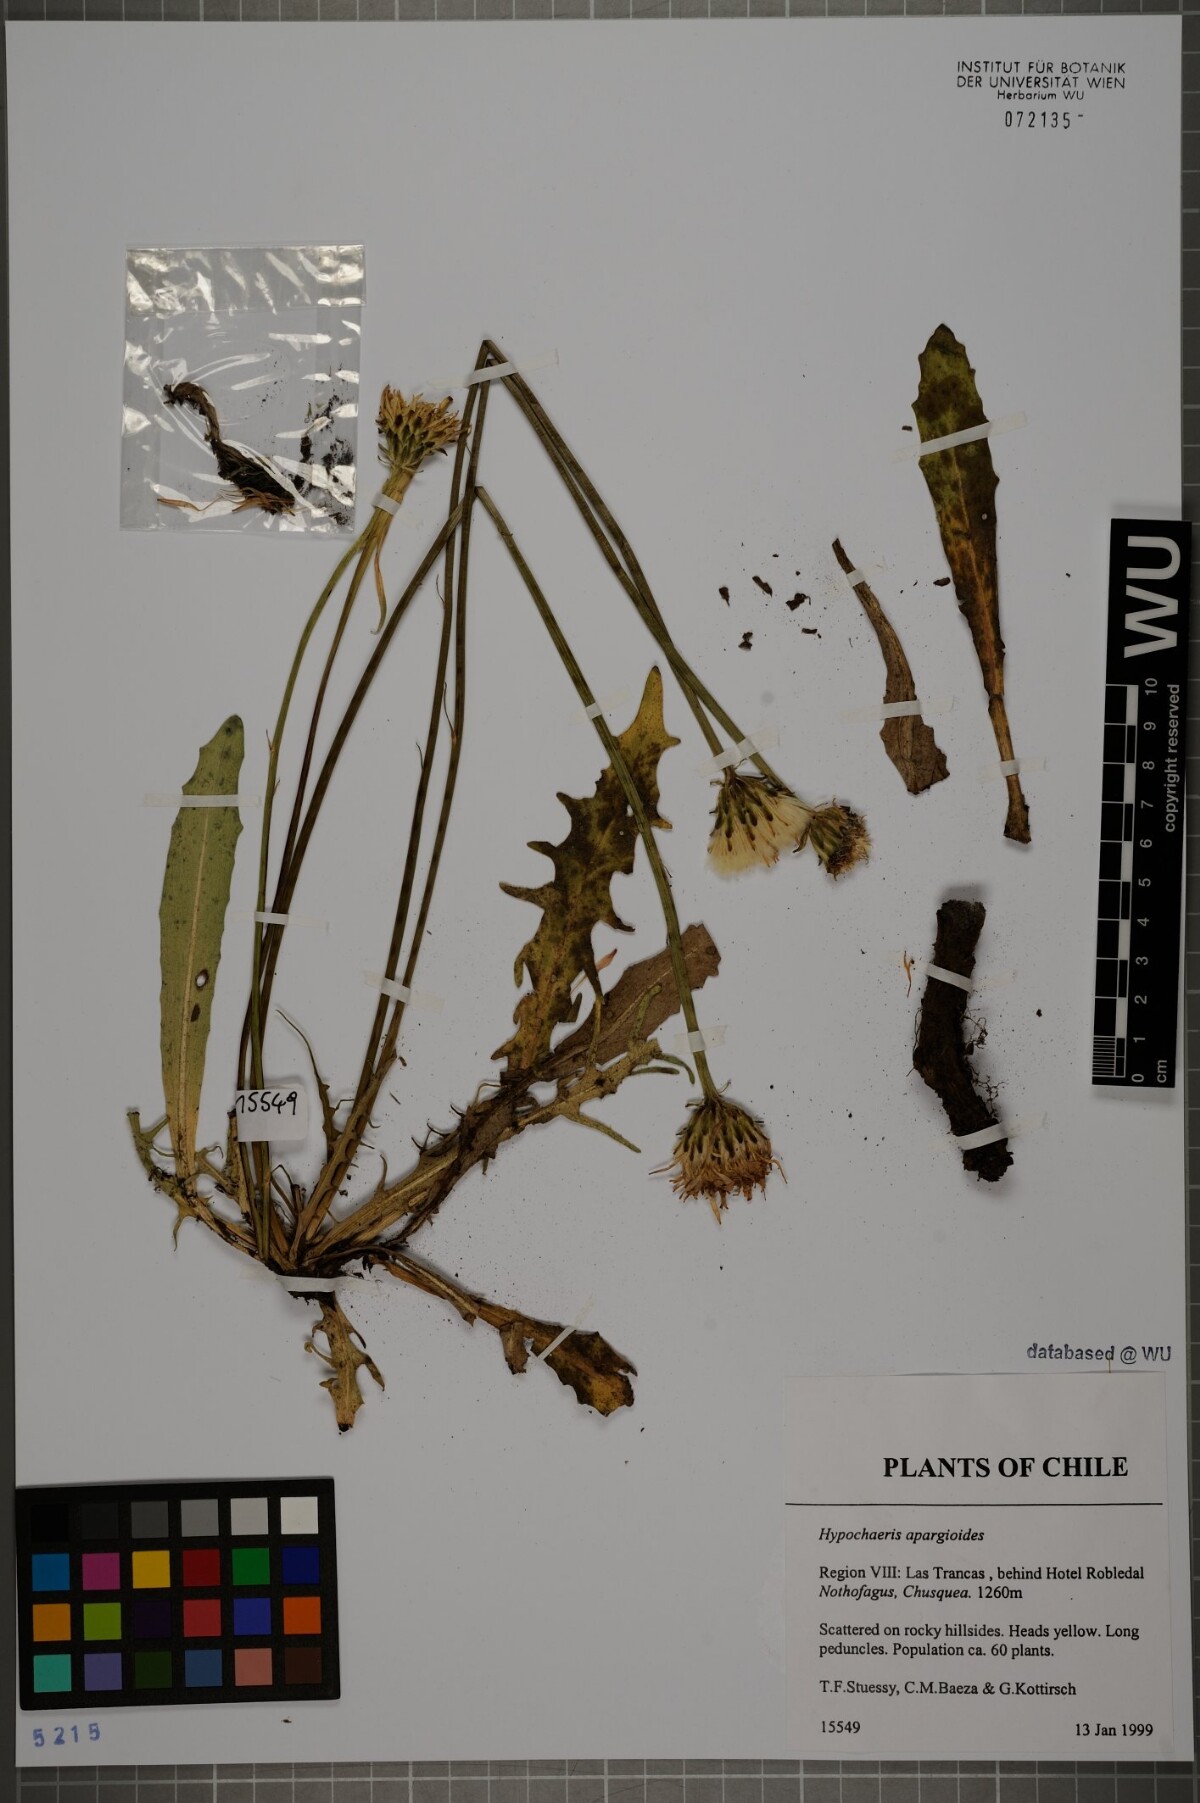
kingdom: Plantae
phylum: Tracheophyta
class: Magnoliopsida
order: Asterales
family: Asteraceae
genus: Hypochaeris
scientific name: Hypochaeris apargioides
